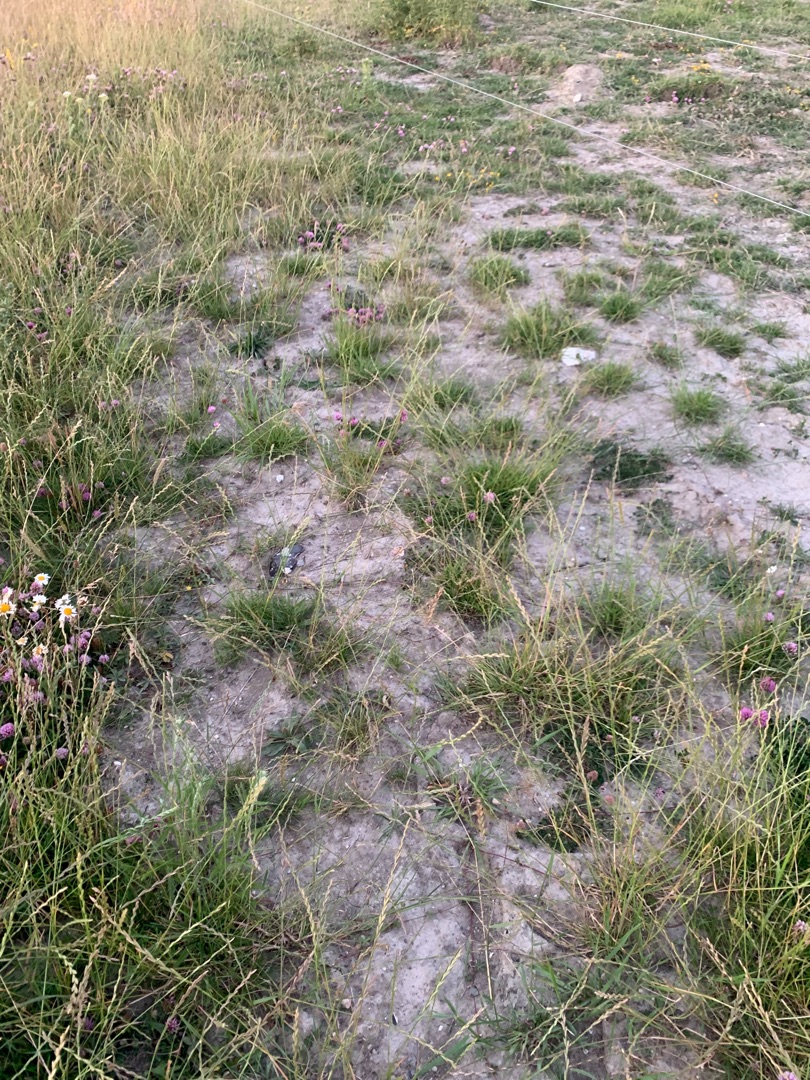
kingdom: Plantae
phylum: Tracheophyta
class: Liliopsida
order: Poales
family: Poaceae
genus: Lolium
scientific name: Lolium perenne
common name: Almindelig rajgræs
